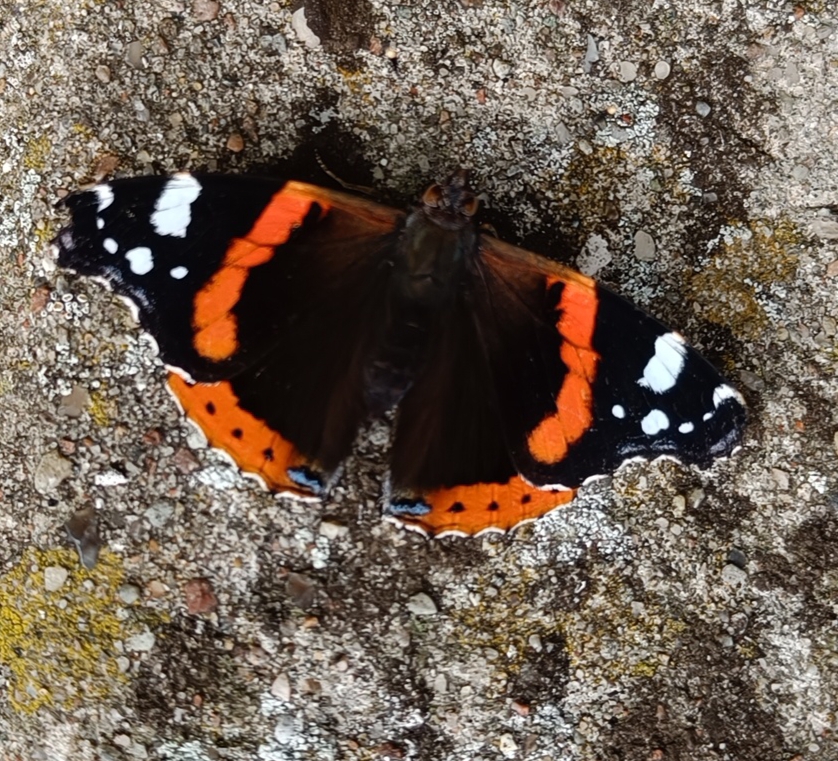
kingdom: Animalia
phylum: Arthropoda
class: Insecta
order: Lepidoptera
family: Nymphalidae
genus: Vanessa
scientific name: Vanessa atalanta
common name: Admiral
